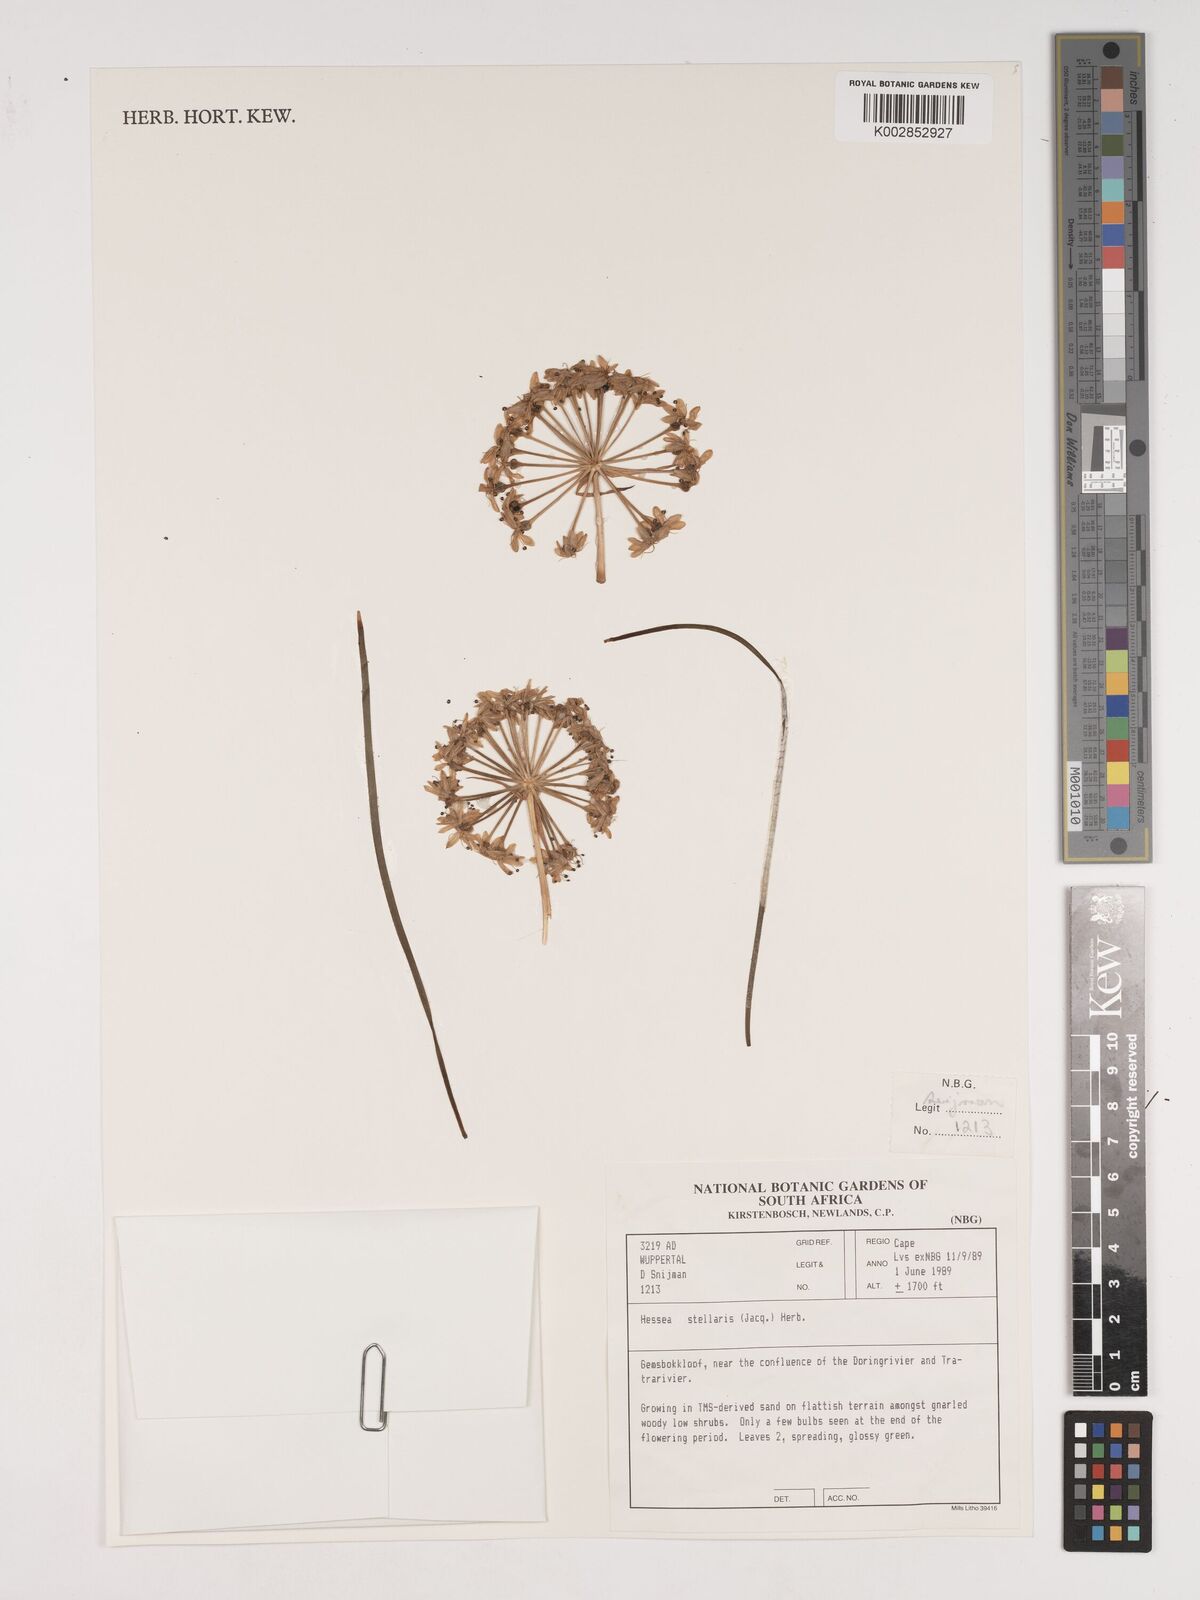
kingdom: Plantae
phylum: Tracheophyta
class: Liliopsida
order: Asparagales
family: Amaryllidaceae
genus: Hessea
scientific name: Hessea stellaris
